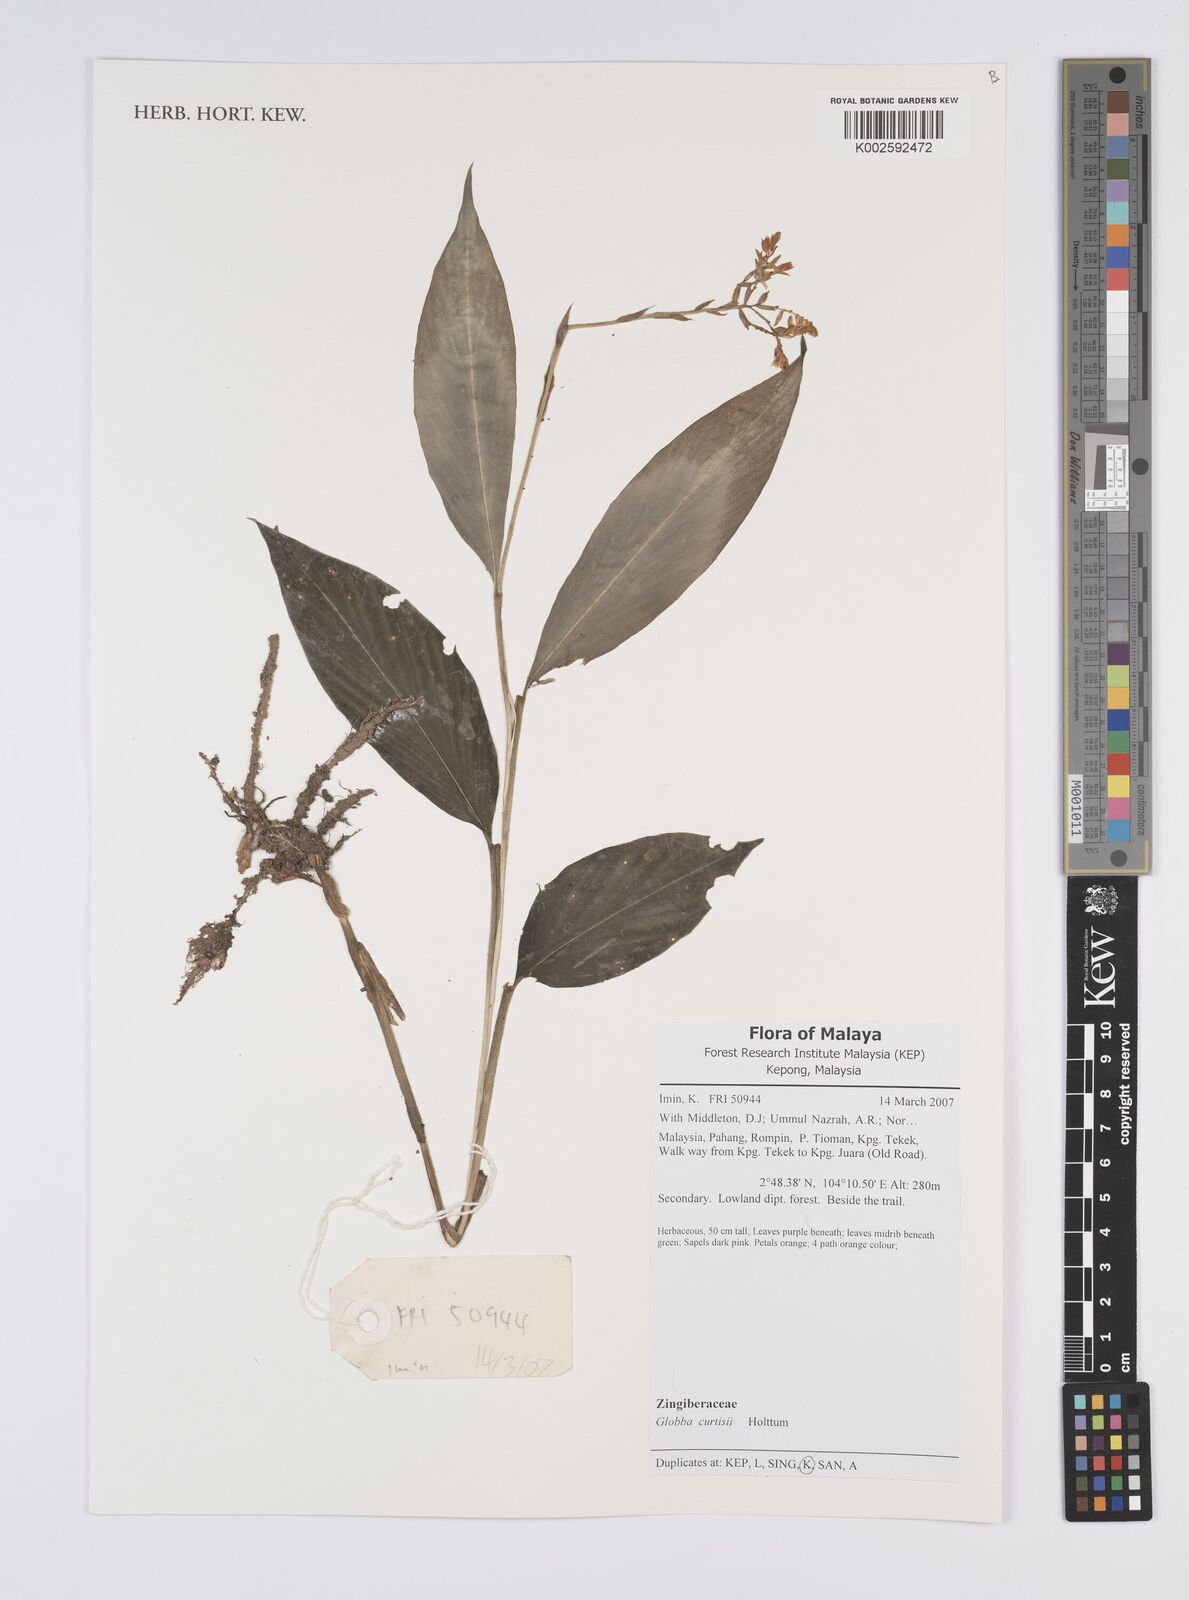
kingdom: Plantae
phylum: Tracheophyta
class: Liliopsida
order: Zingiberales
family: Zingiberaceae
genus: Globba
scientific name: Globba curtisii
